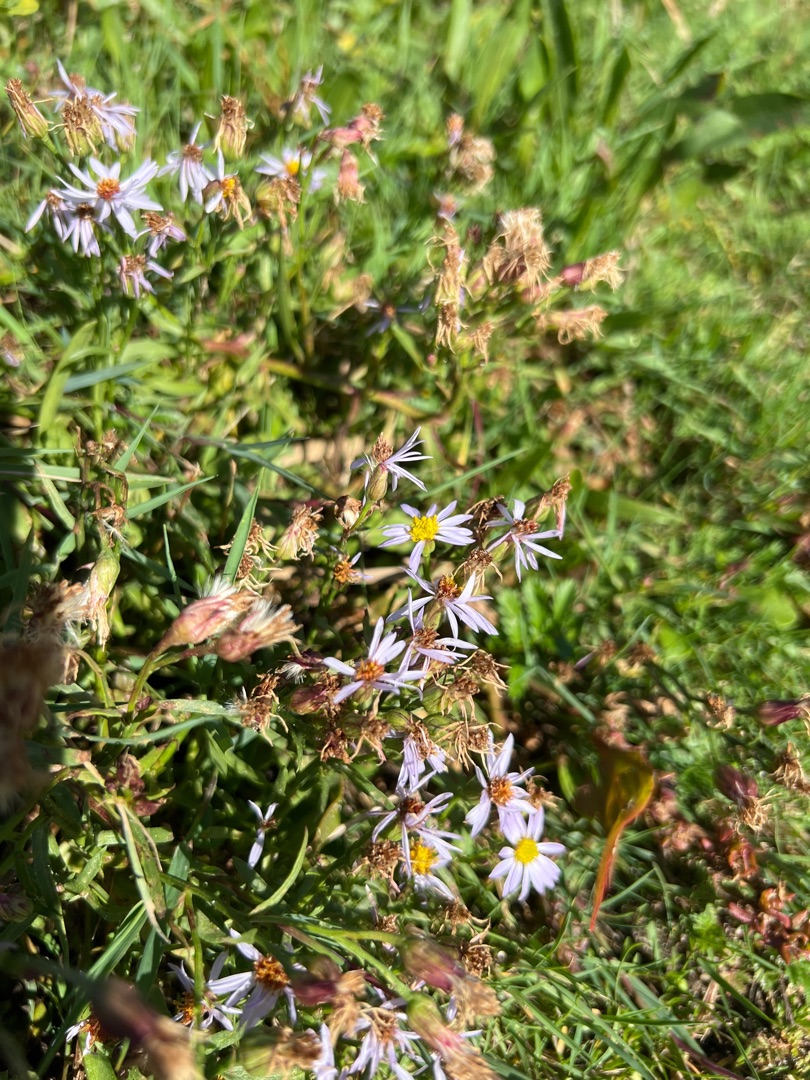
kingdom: Plantae
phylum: Tracheophyta
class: Magnoliopsida
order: Asterales
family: Asteraceae
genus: Tripolium
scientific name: Tripolium pannonicum
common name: Strandasters
